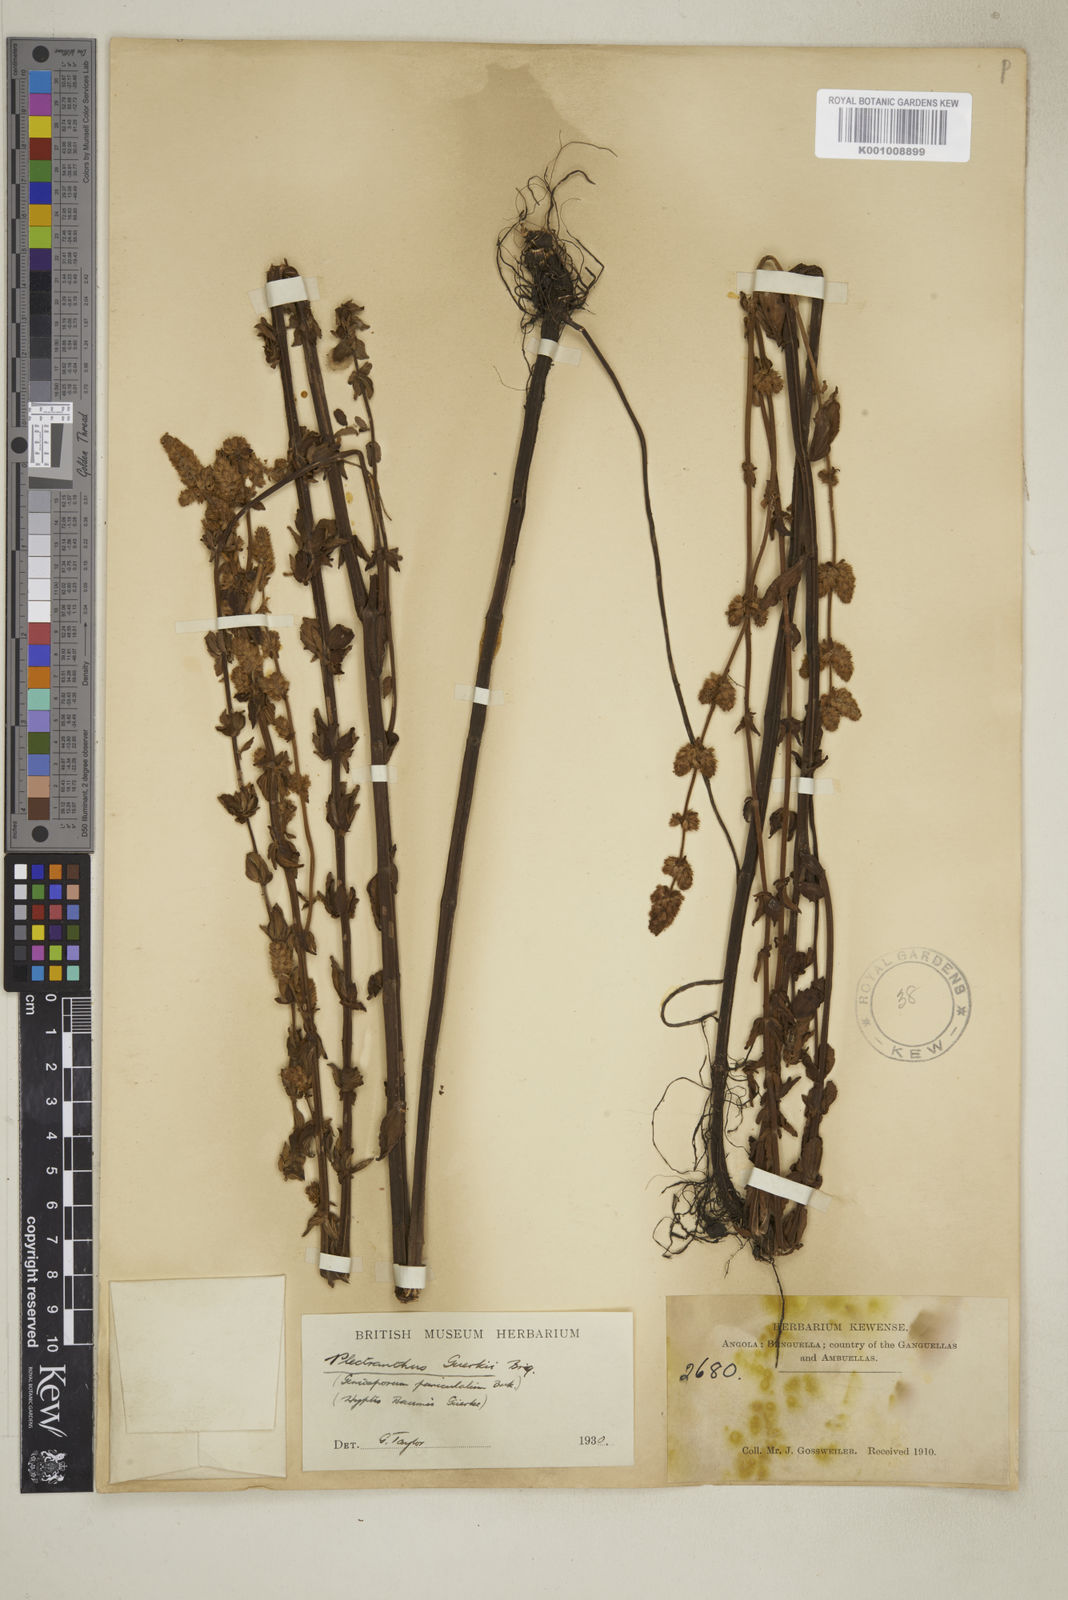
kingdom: Plantae
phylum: Tracheophyta
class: Magnoliopsida
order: Lamiales
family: Lamiaceae
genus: Plectranthus
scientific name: Plectranthus
